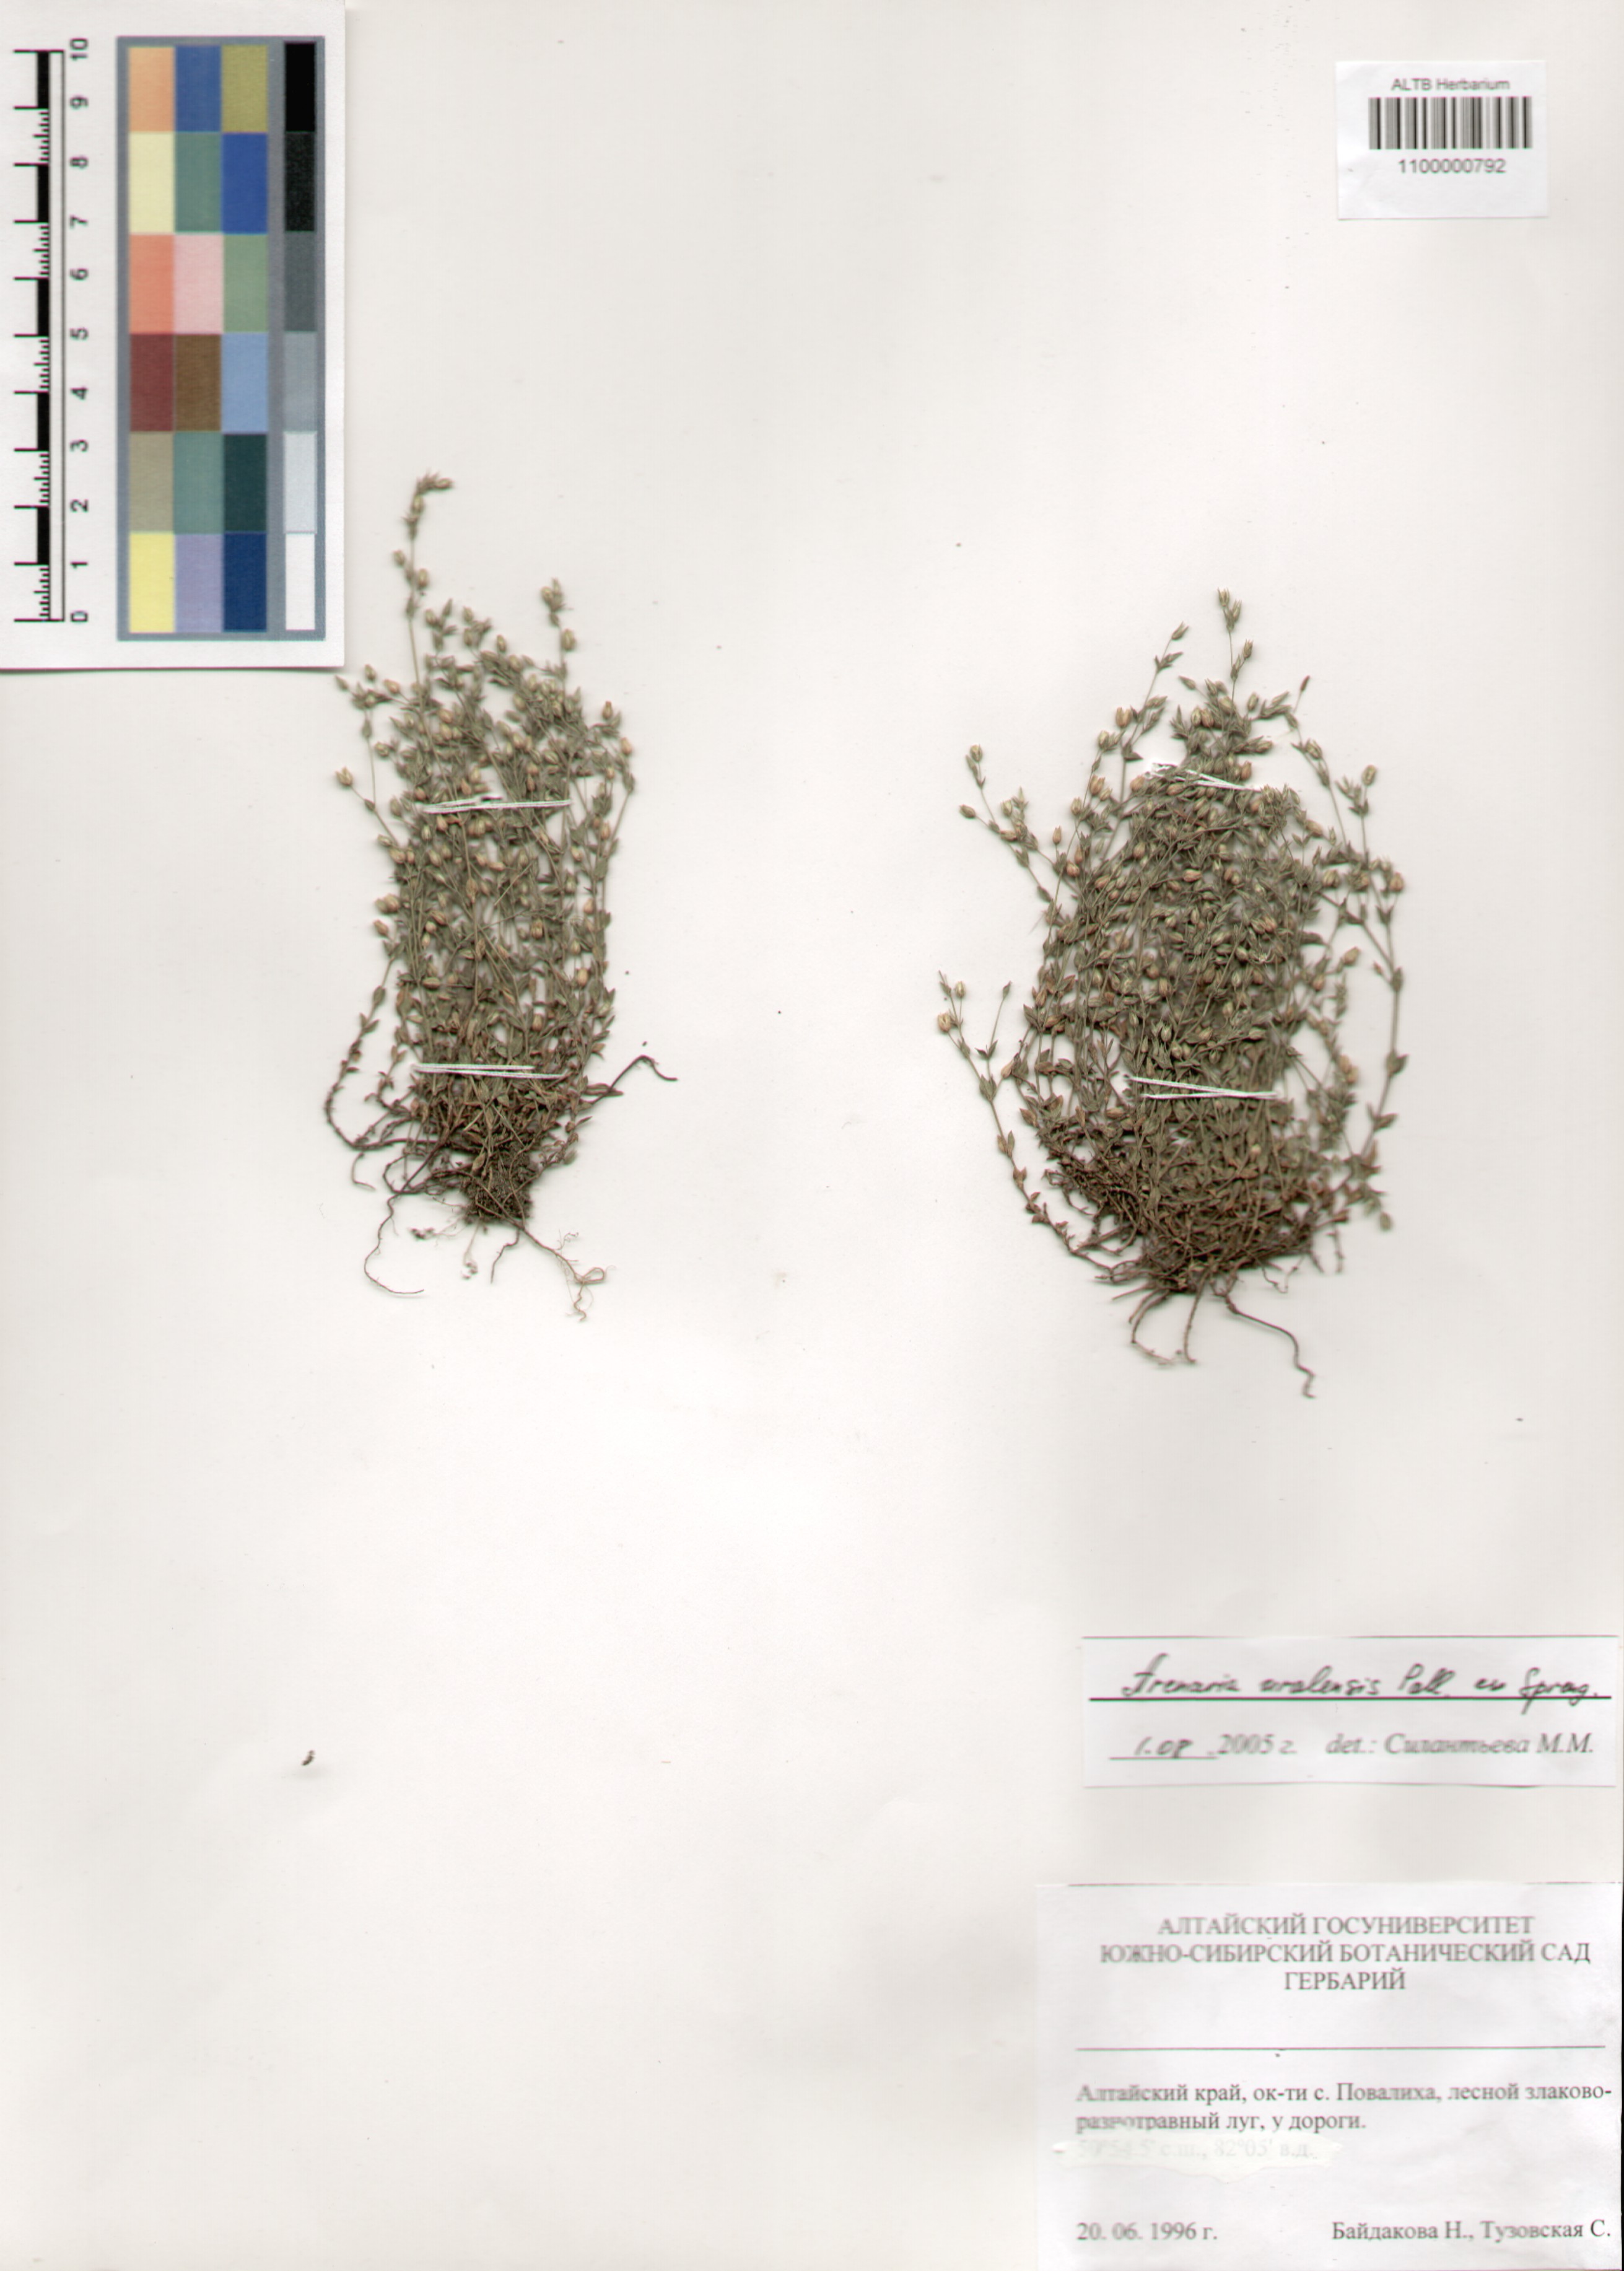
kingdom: Plantae
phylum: Tracheophyta
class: Magnoliopsida
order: Caryophyllales
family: Caryophyllaceae
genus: Arenaria
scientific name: Arenaria serpyllifolia
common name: Thyme-leaved sandwort
